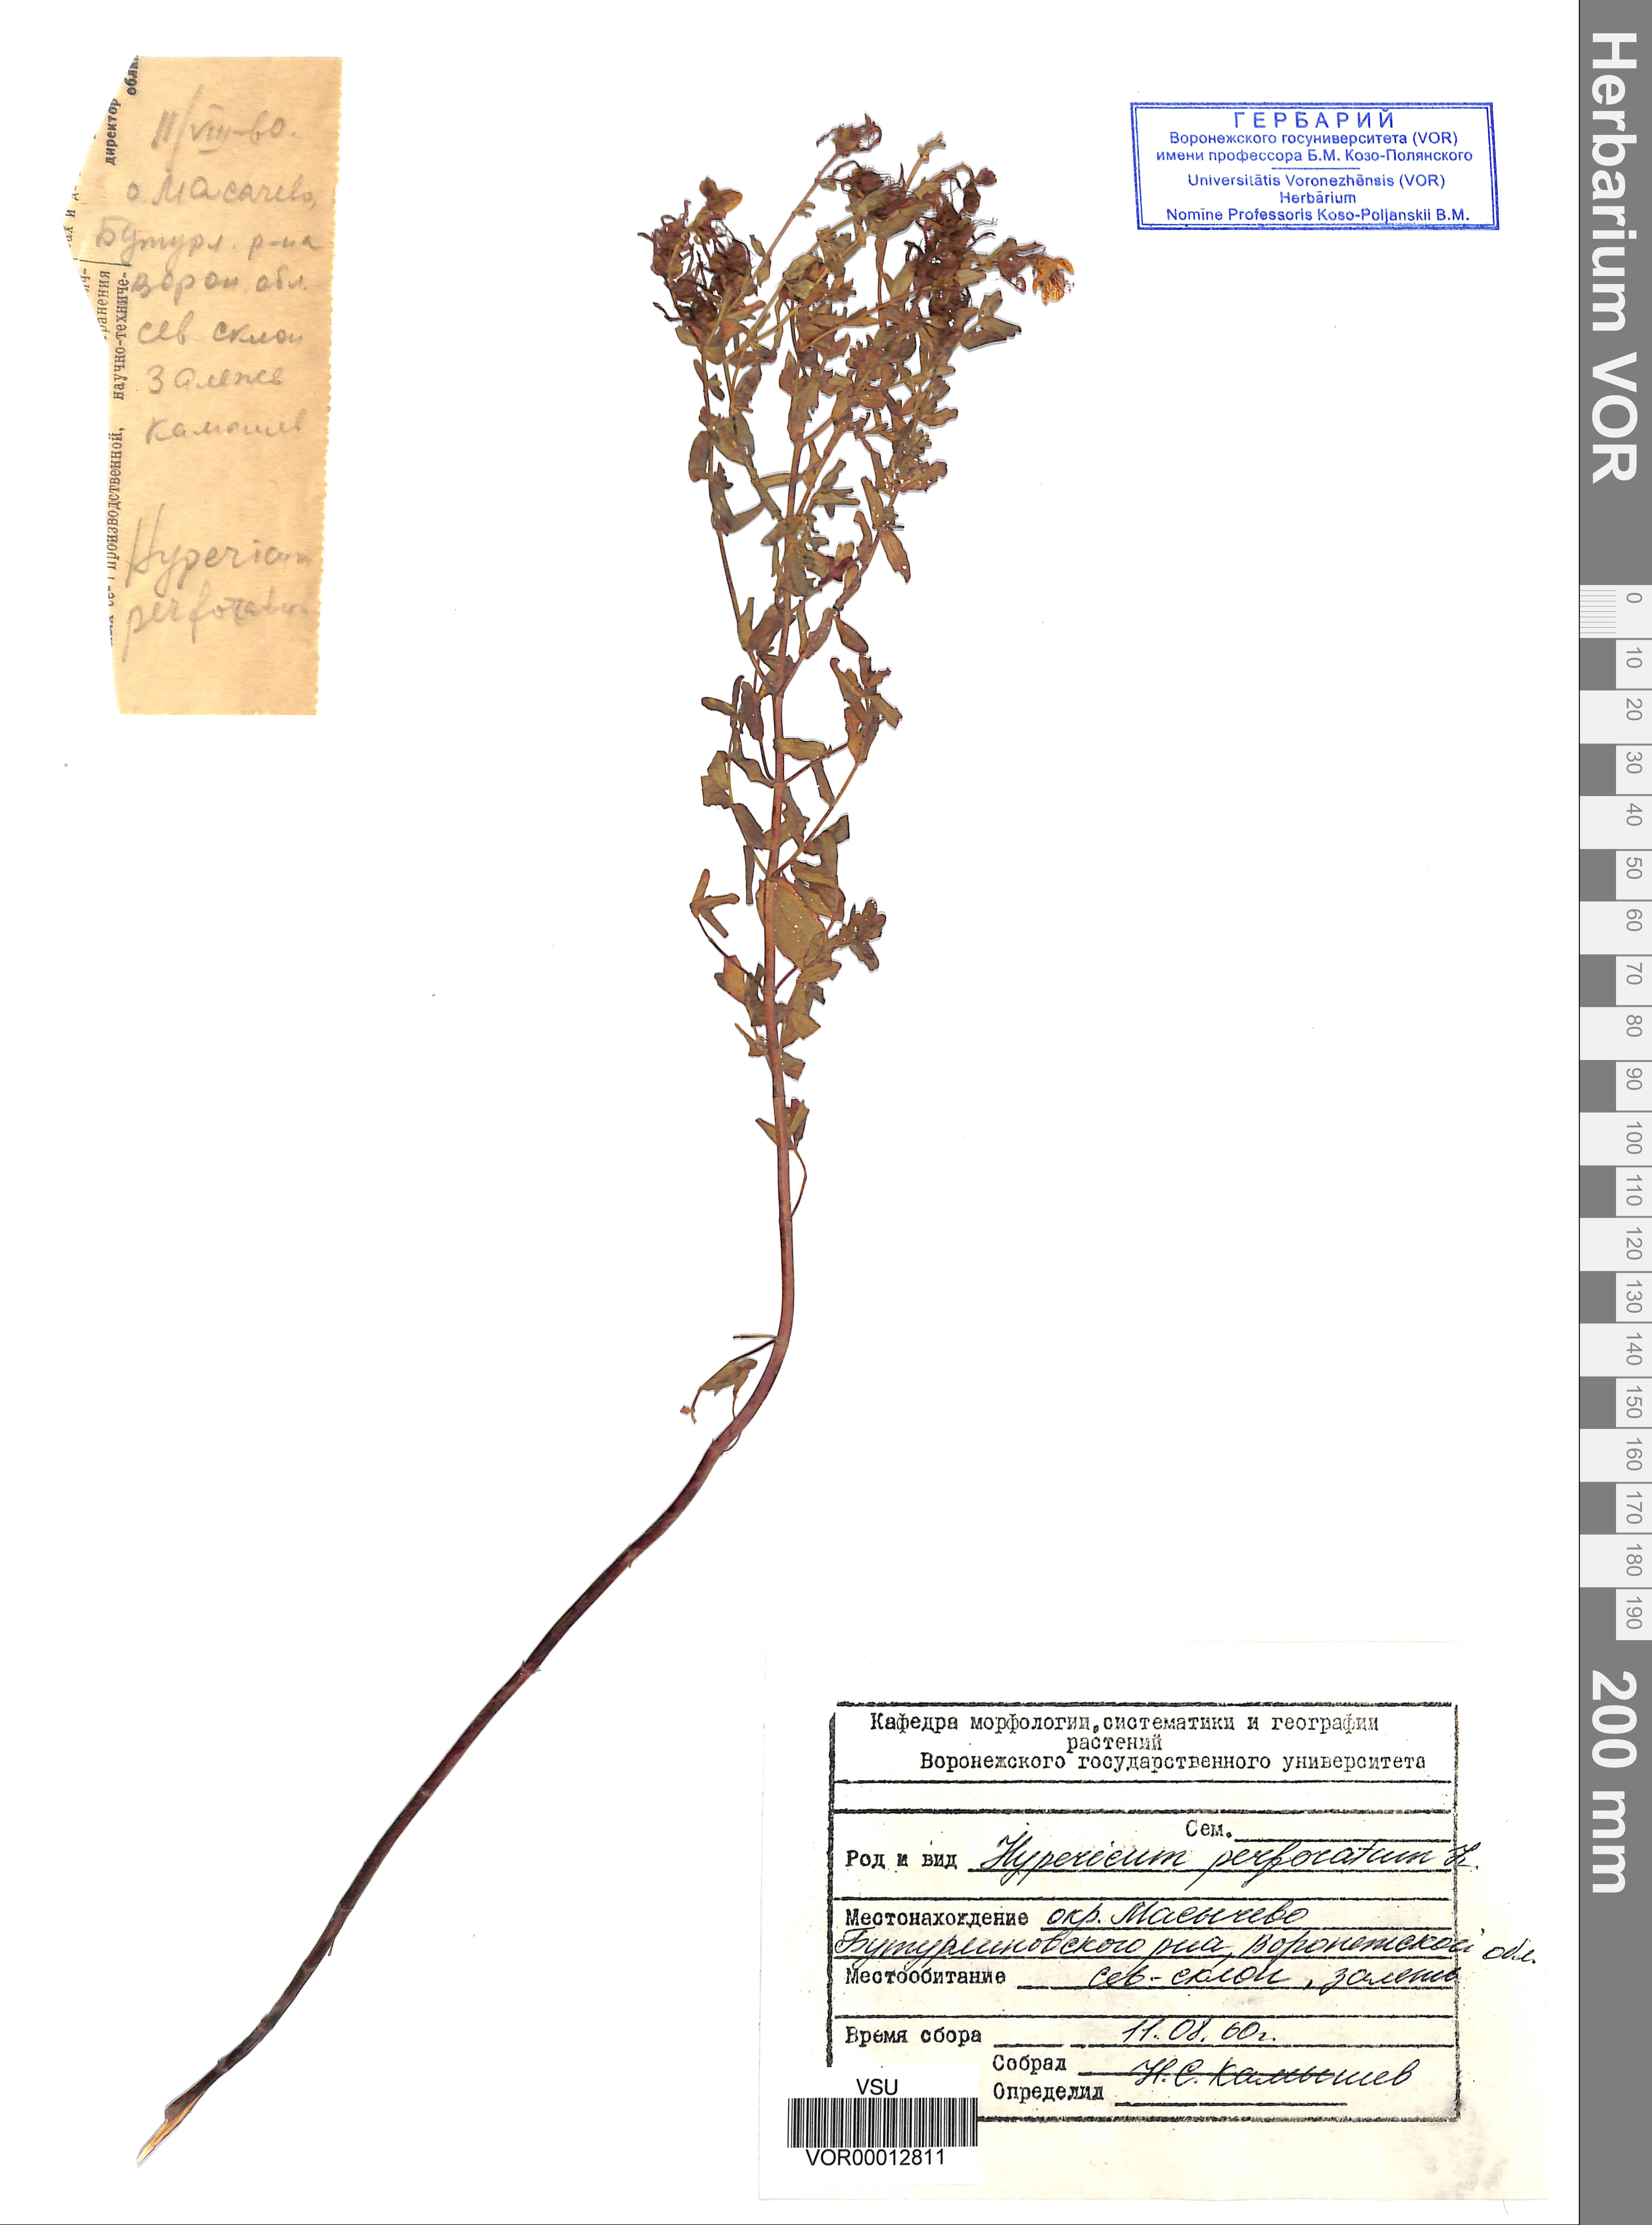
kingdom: Plantae
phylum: Tracheophyta
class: Magnoliopsida
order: Malpighiales
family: Hypericaceae
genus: Hypericum
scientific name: Hypericum perforatum
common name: Common st. johnswort
